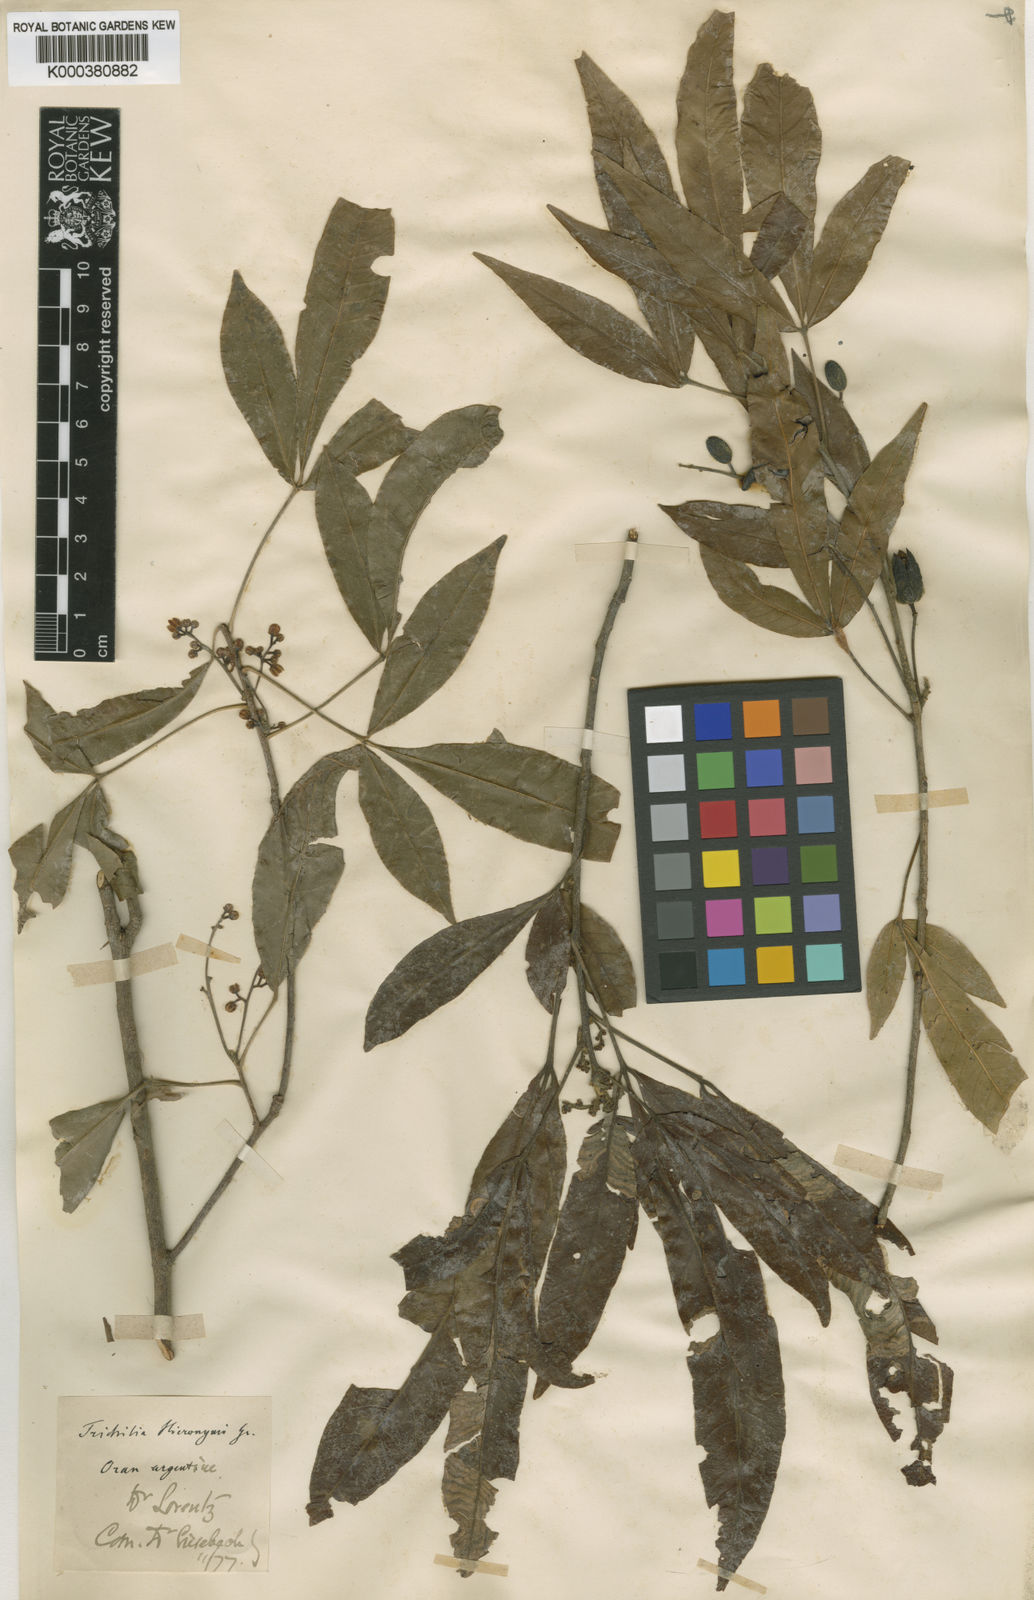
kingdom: Plantae
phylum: Tracheophyta
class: Magnoliopsida
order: Sapindales
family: Meliaceae
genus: Trichilia
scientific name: Trichilia claussenii
